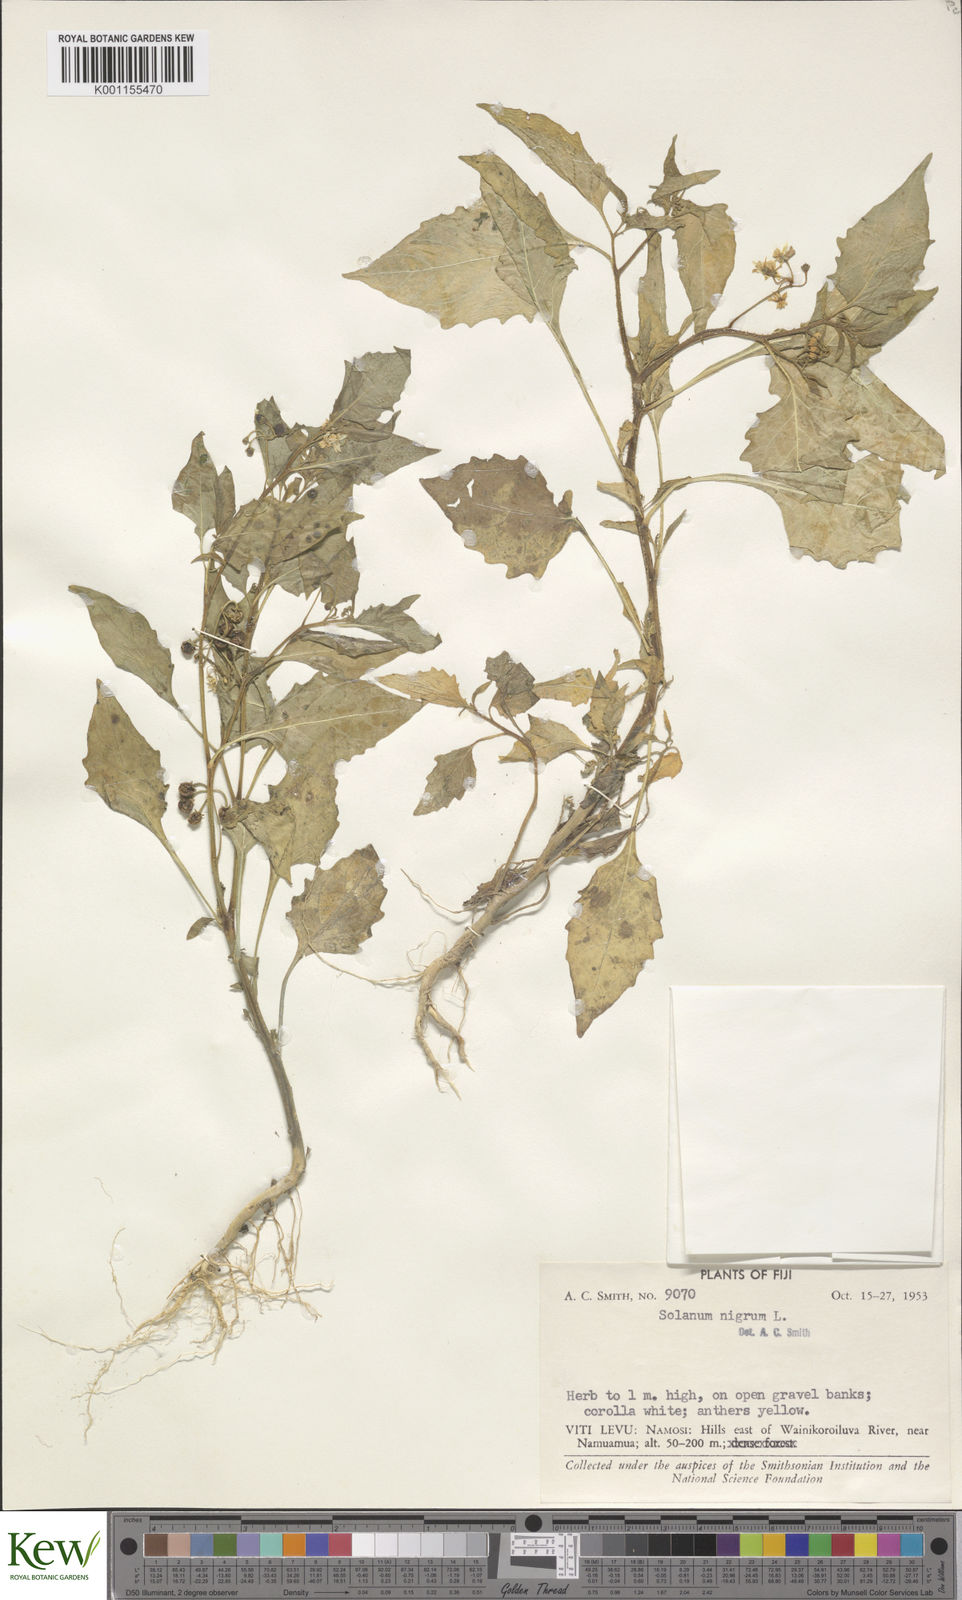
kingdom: Plantae
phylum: Tracheophyta
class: Magnoliopsida
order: Solanales
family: Solanaceae
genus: Solanum
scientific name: Solanum
